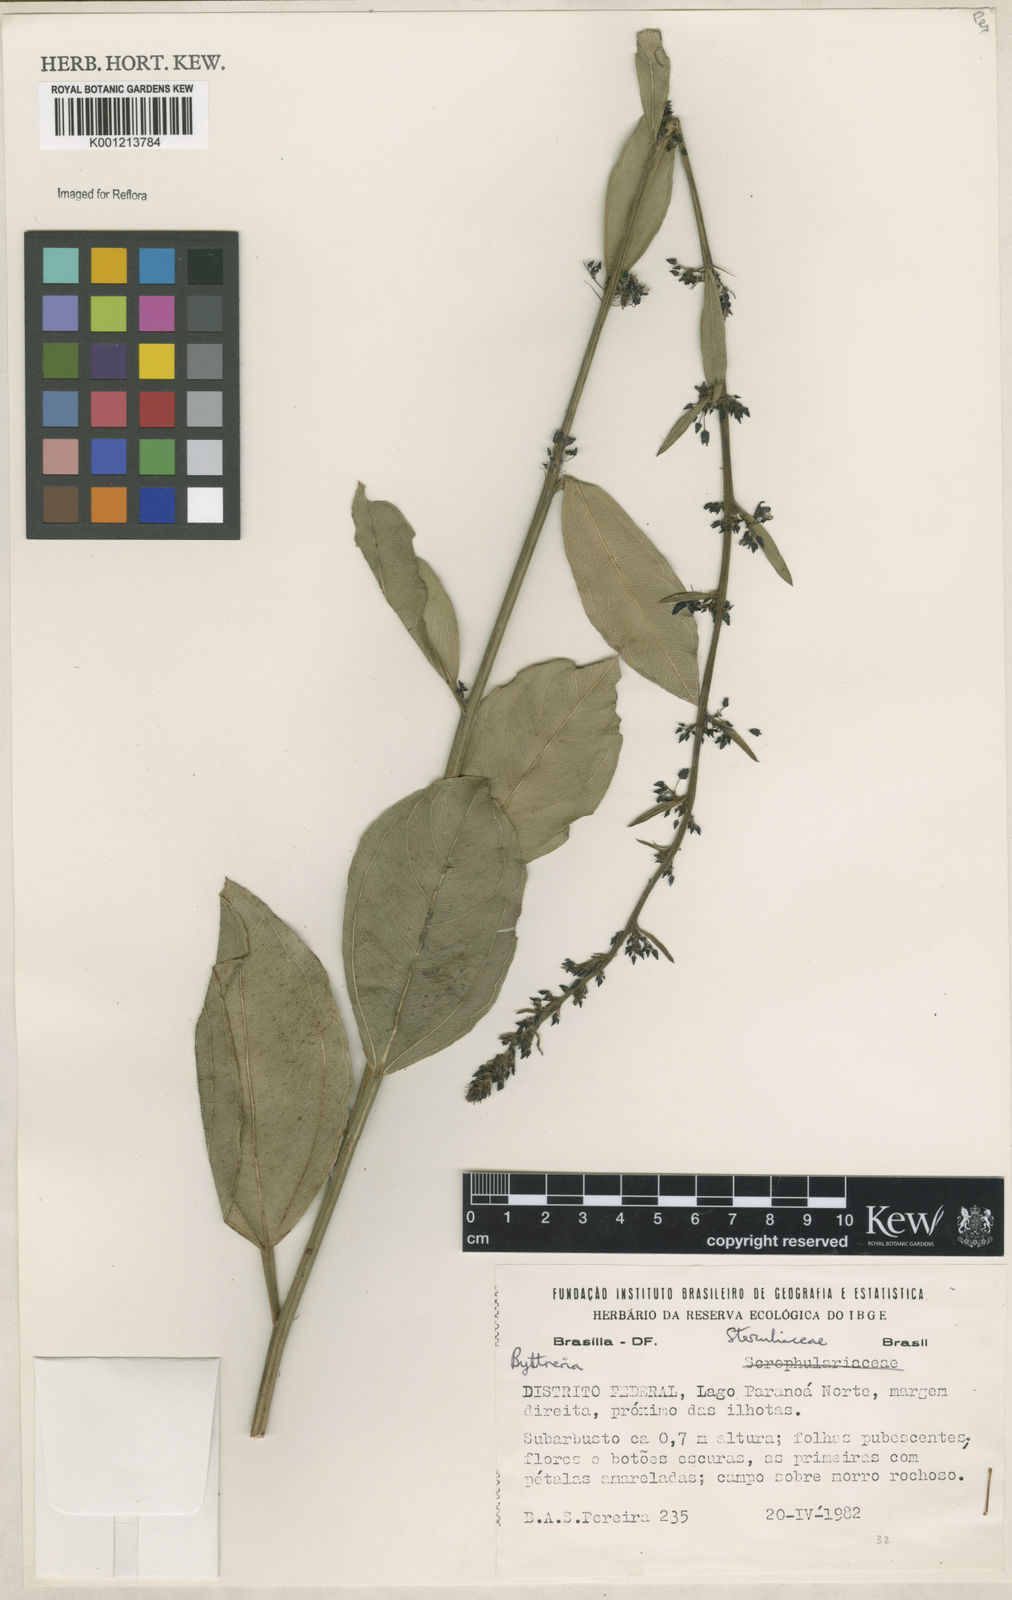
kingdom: Plantae
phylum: Tracheophyta
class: Magnoliopsida
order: Malvales
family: Malvaceae
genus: Byttneria
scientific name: Byttneria
